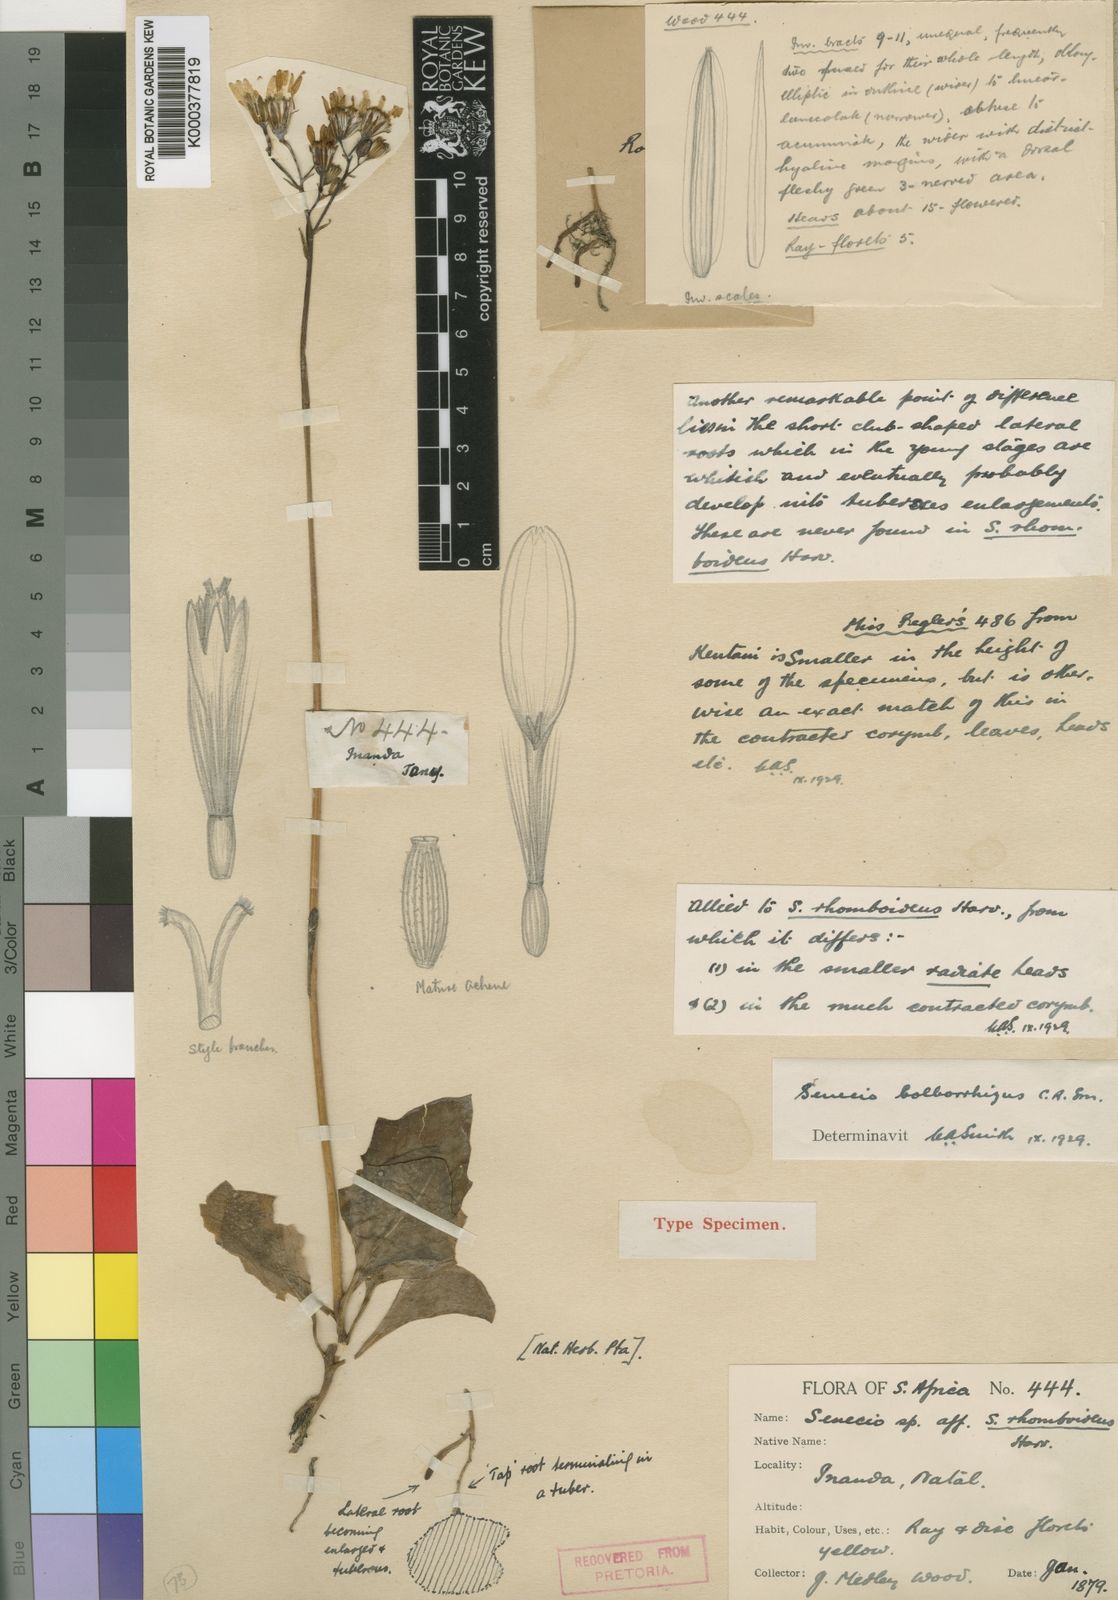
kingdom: Plantae
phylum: Tracheophyta
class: Magnoliopsida
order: Asterales
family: Asteraceae
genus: Senecio
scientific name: Senecio ruwenzoriensis
